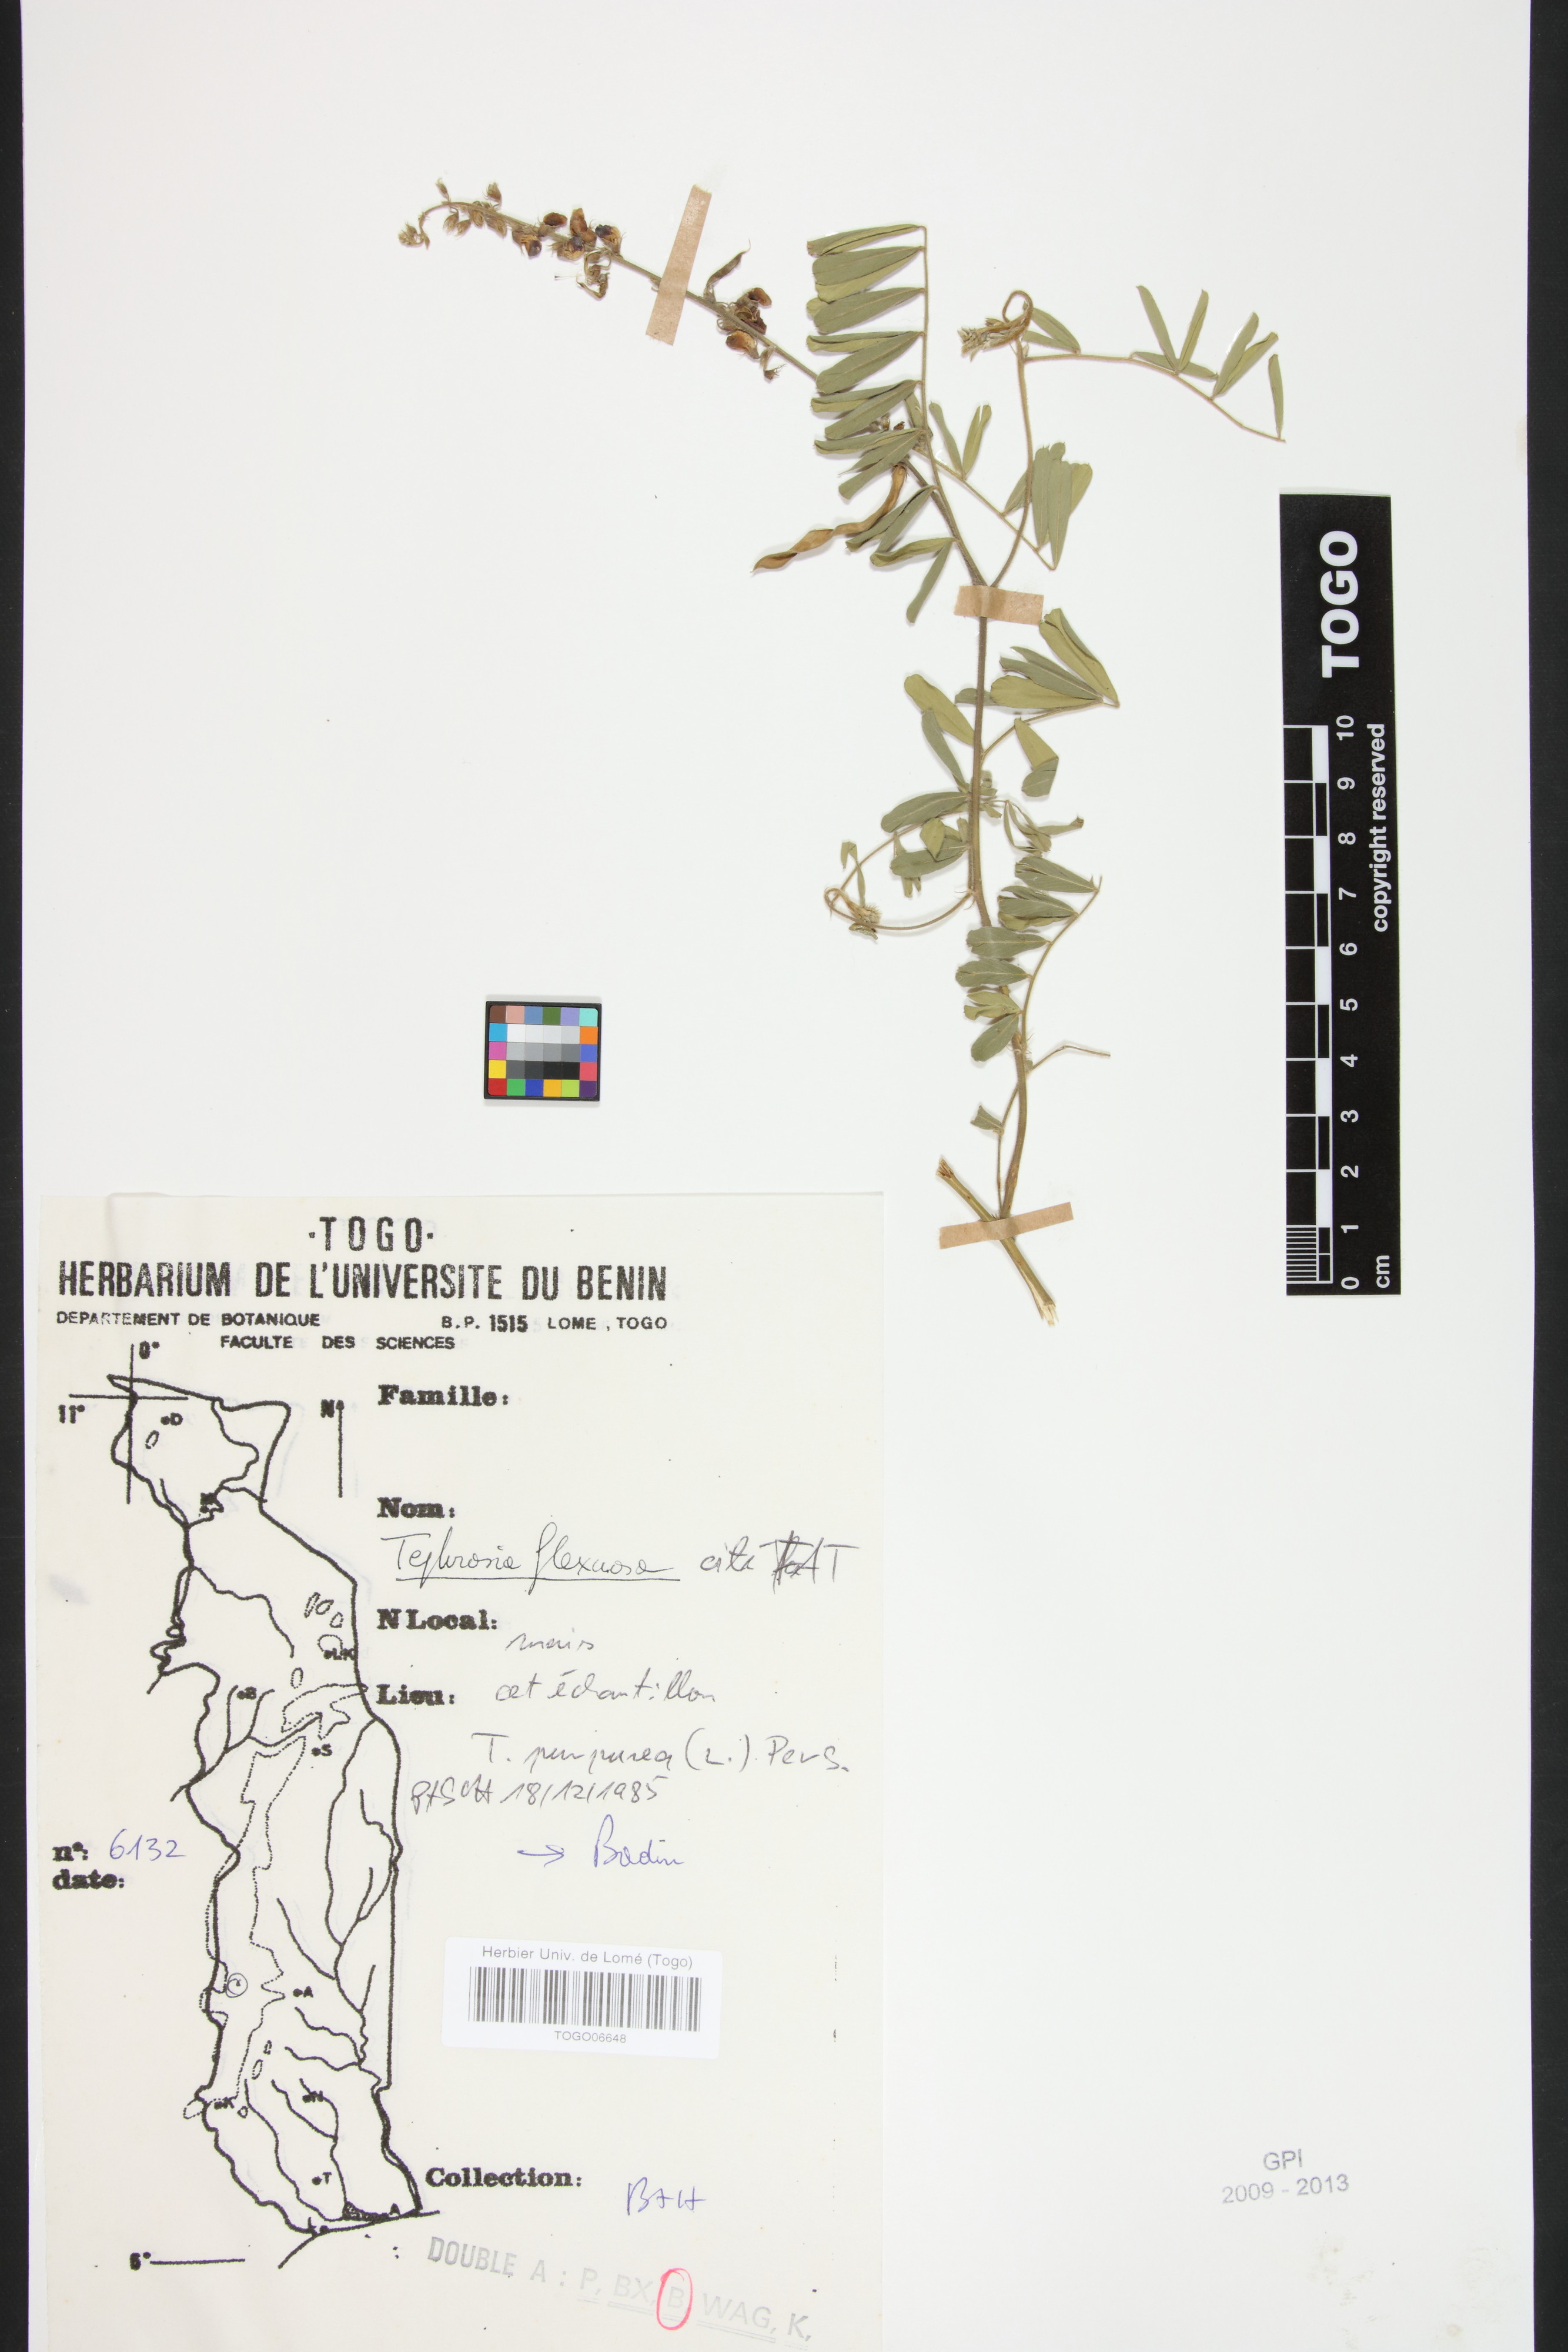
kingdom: Plantae
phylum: Tracheophyta
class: Magnoliopsida
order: Fabales
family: Fabaceae
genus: Tephrosia
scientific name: Tephrosia purpurea
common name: Fishpoison
